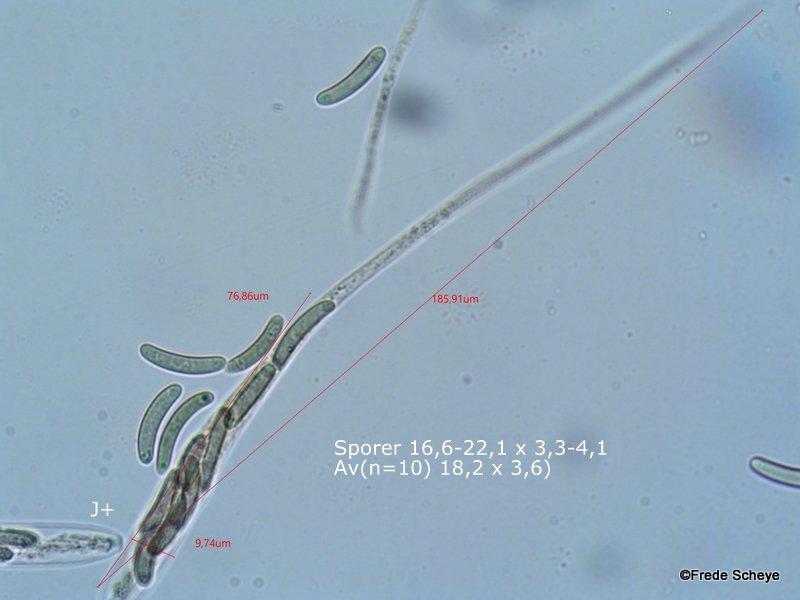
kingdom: Fungi
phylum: Ascomycota
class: Sordariomycetes
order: Xylariales
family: Diatrypaceae
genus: Eutypella
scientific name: Eutypella quaternata
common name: bøge-korsprik
